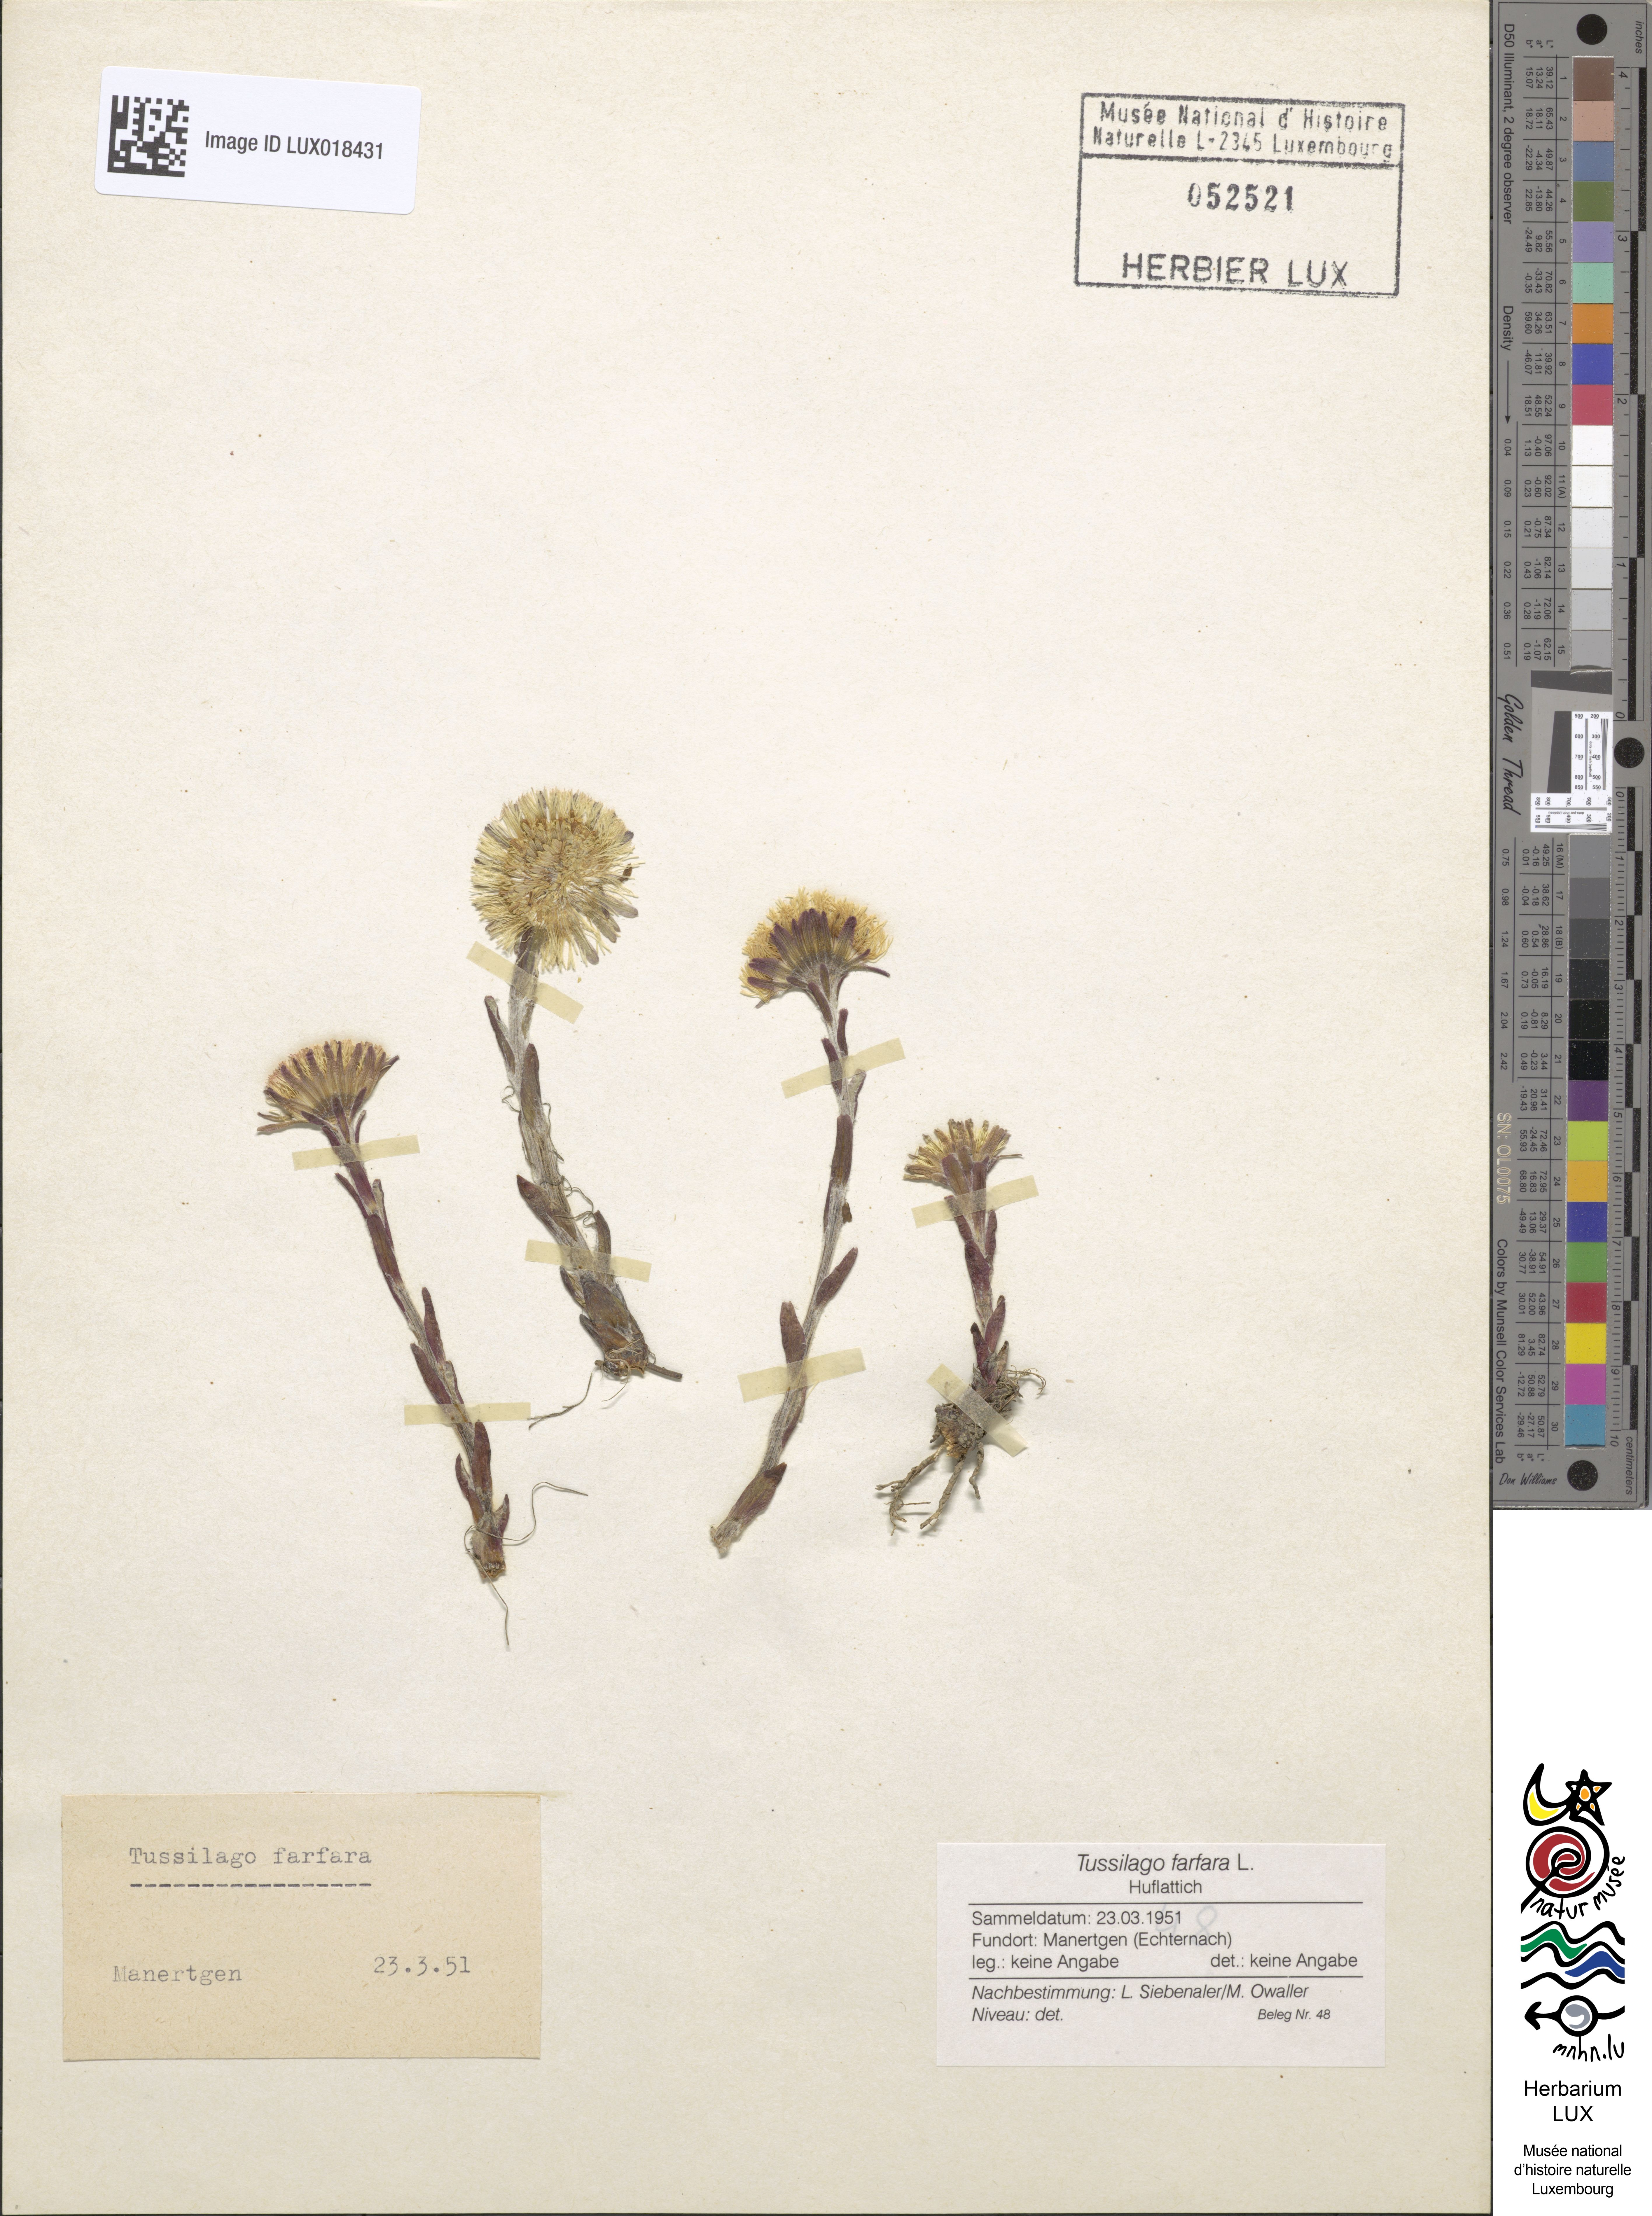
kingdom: Plantae
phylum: Tracheophyta
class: Magnoliopsida
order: Asterales
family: Asteraceae
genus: Tussilago
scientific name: Tussilago farfara
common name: Coltsfoot
